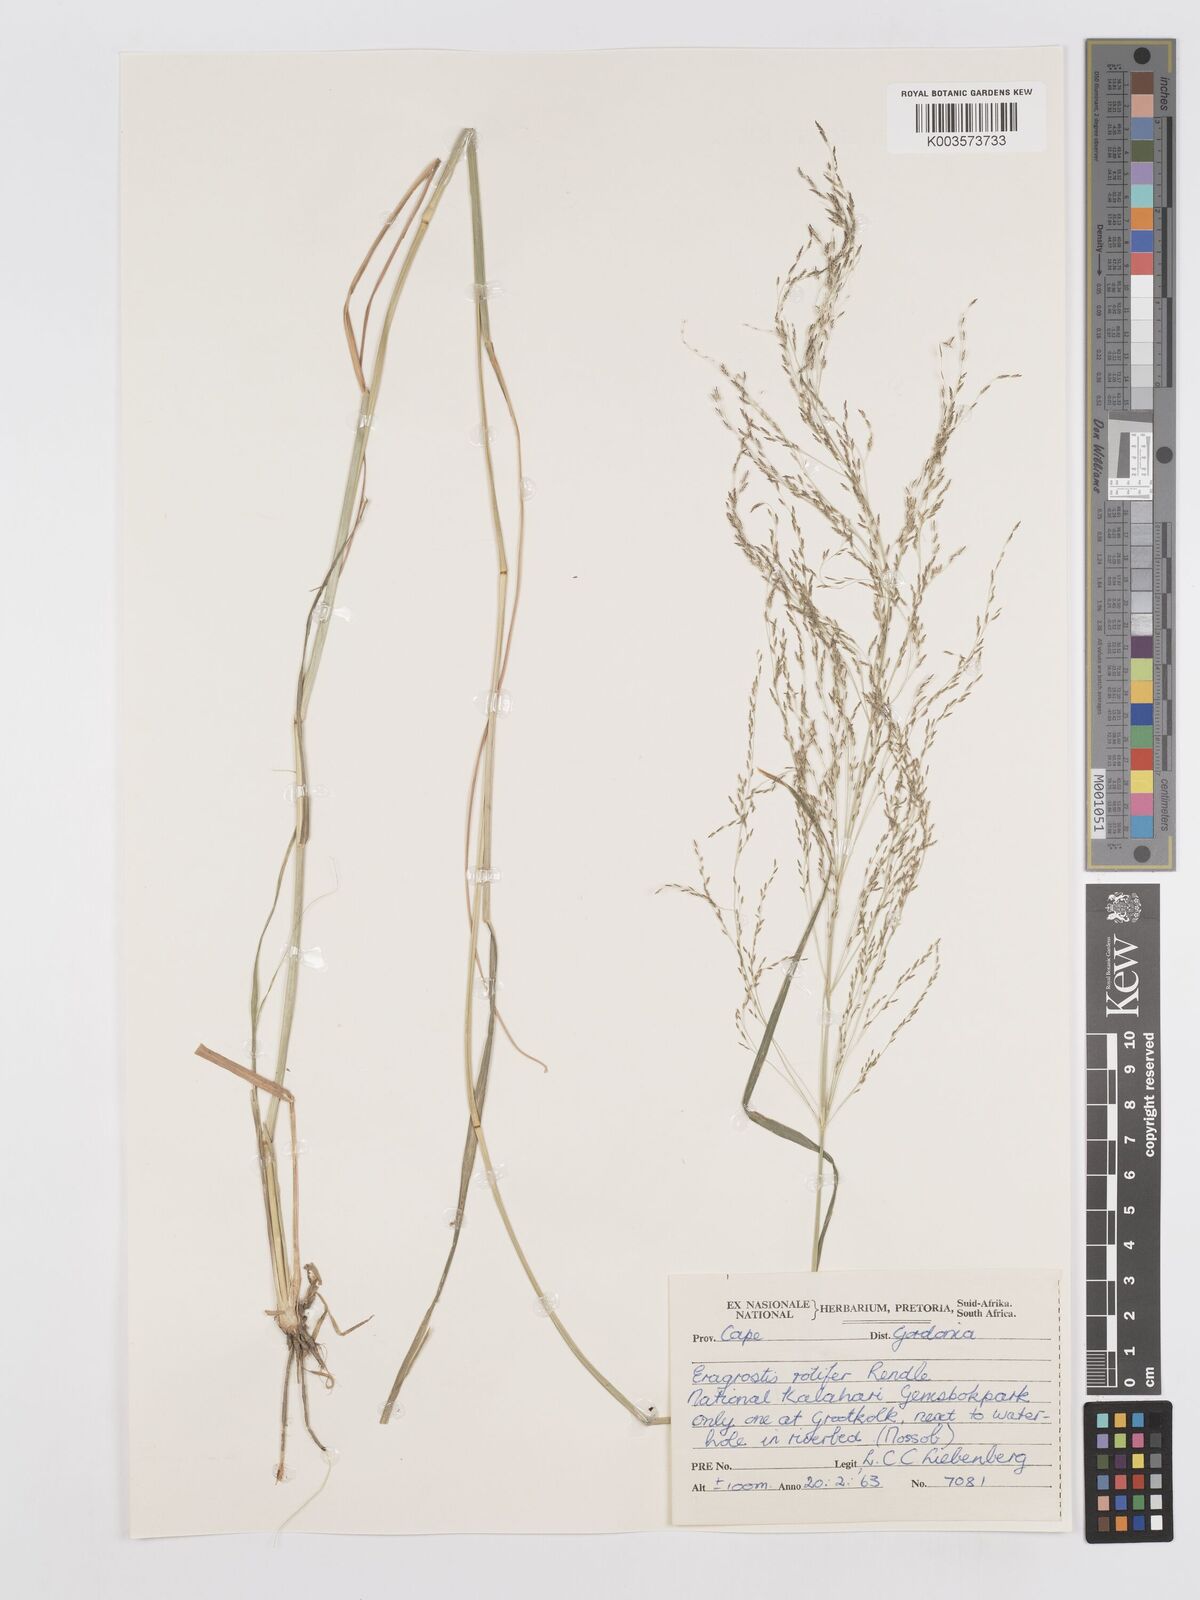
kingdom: Plantae
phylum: Tracheophyta
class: Liliopsida
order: Poales
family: Poaceae
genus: Eragrostis
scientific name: Eragrostis rotifer
